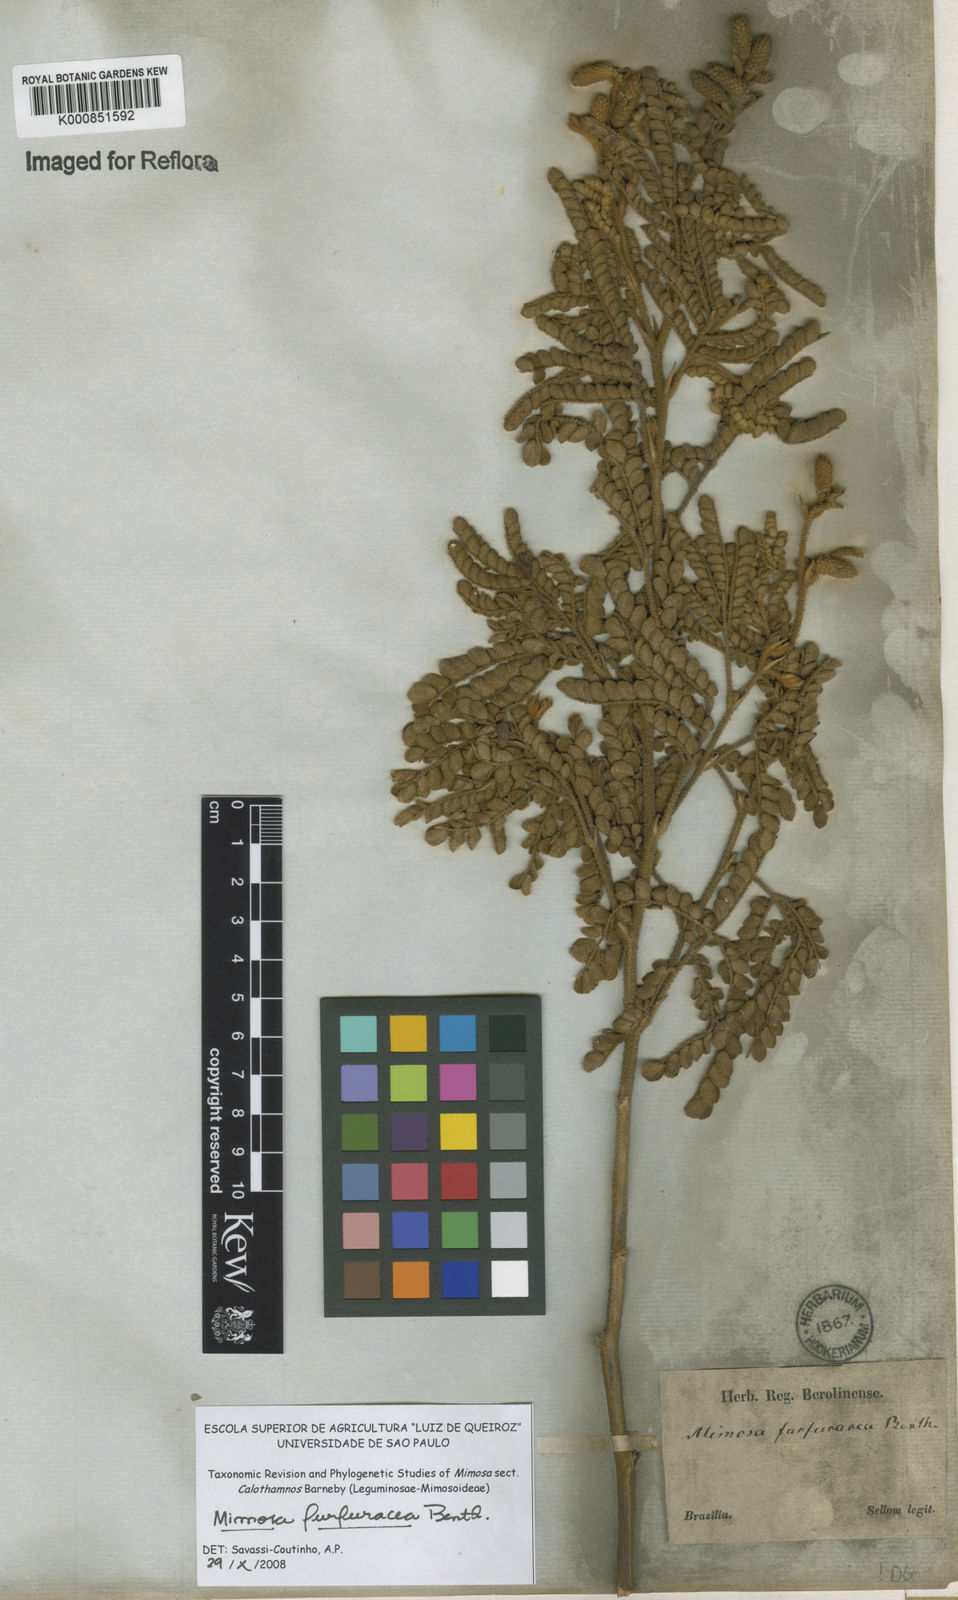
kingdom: Plantae
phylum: Tracheophyta
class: Magnoliopsida
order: Fabales
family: Fabaceae
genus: Mimosa
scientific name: Mimosa furfuracea
